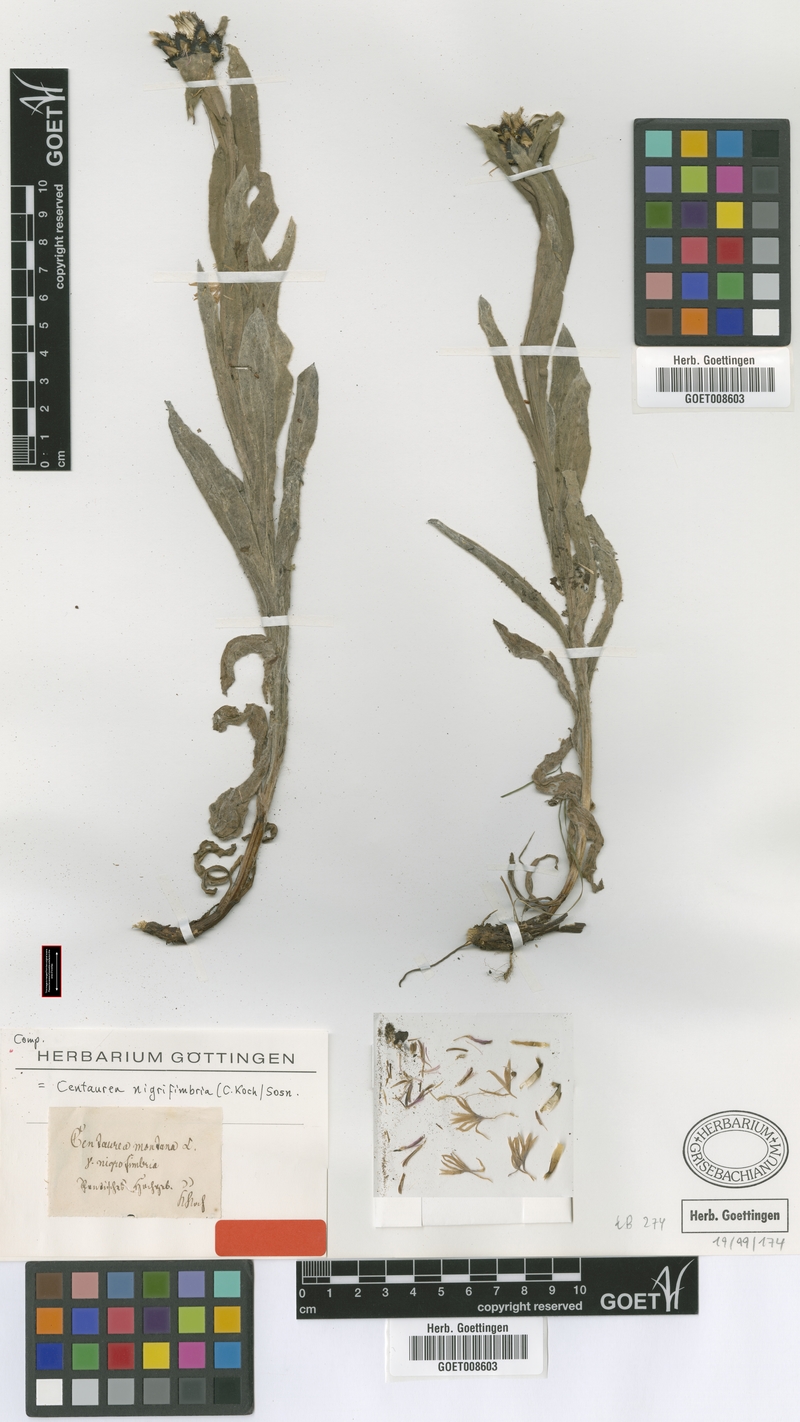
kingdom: Plantae
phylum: Tracheophyta
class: Magnoliopsida
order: Asterales
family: Asteraceae
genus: Centaurea
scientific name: Centaurea nigrofimbria
